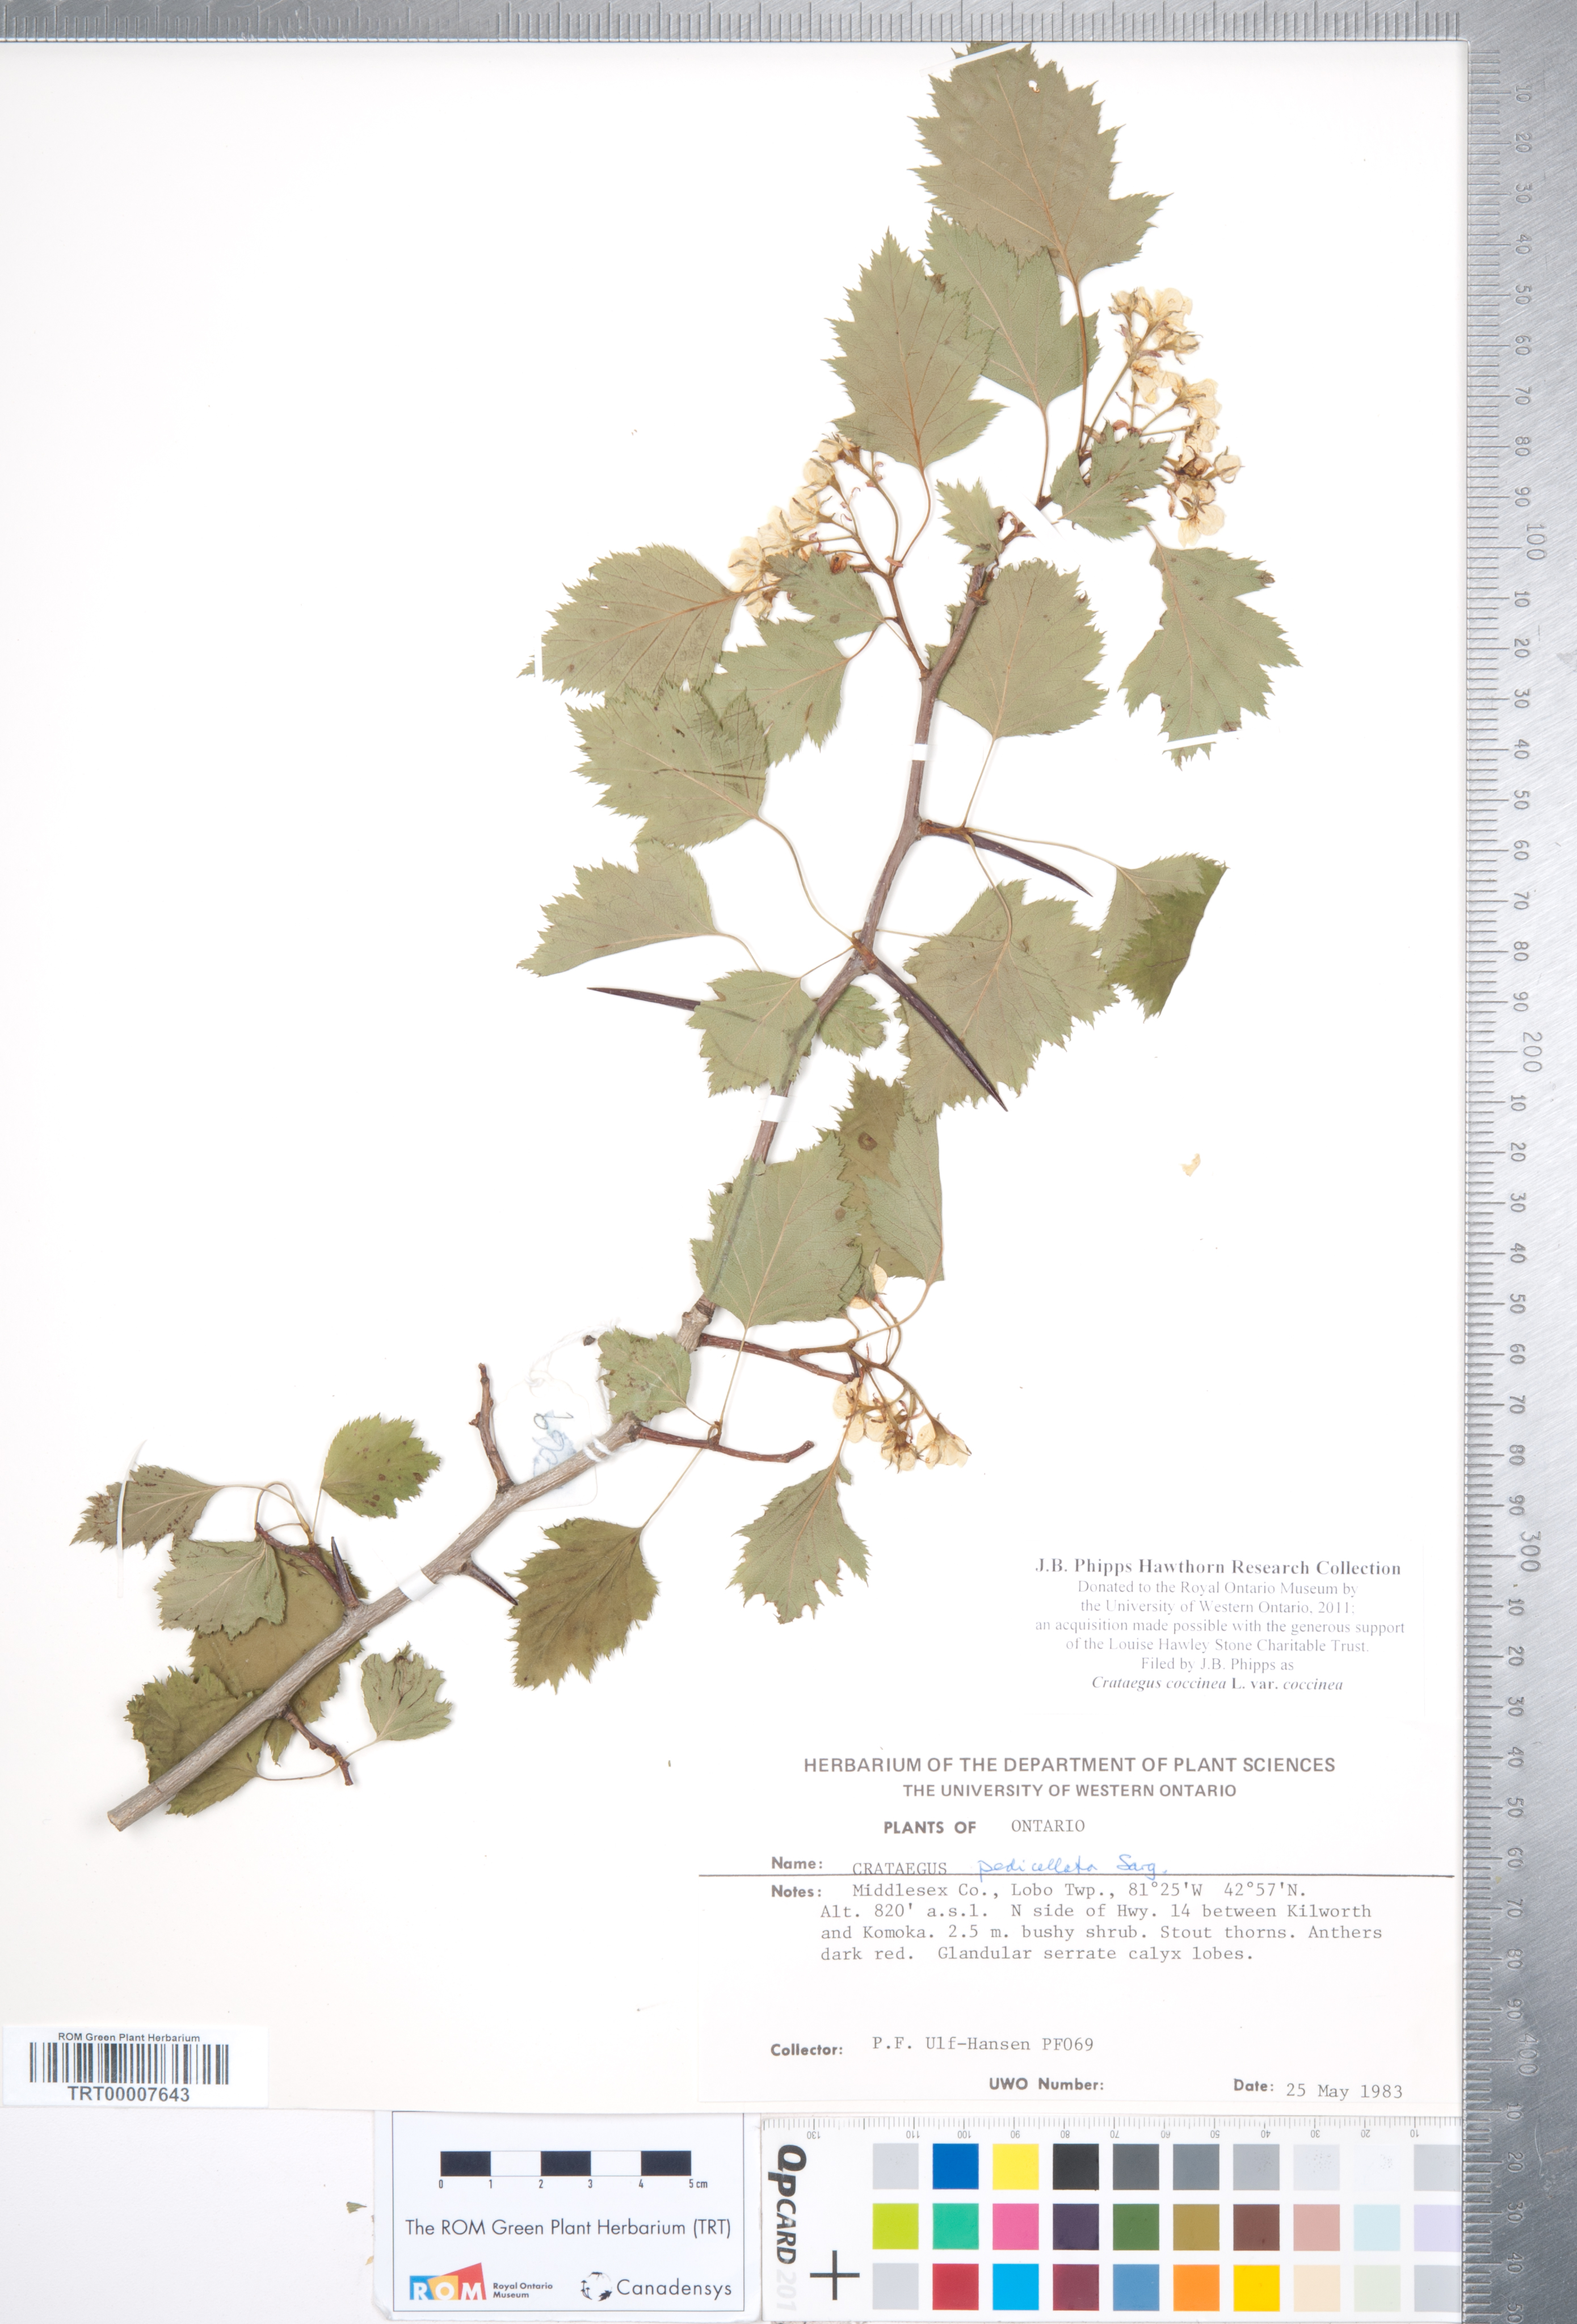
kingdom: Plantae
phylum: Tracheophyta
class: Magnoliopsida
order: Rosales
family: Rosaceae
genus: Crataegus
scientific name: Crataegus coccinea
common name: Scarlet hawthorn
